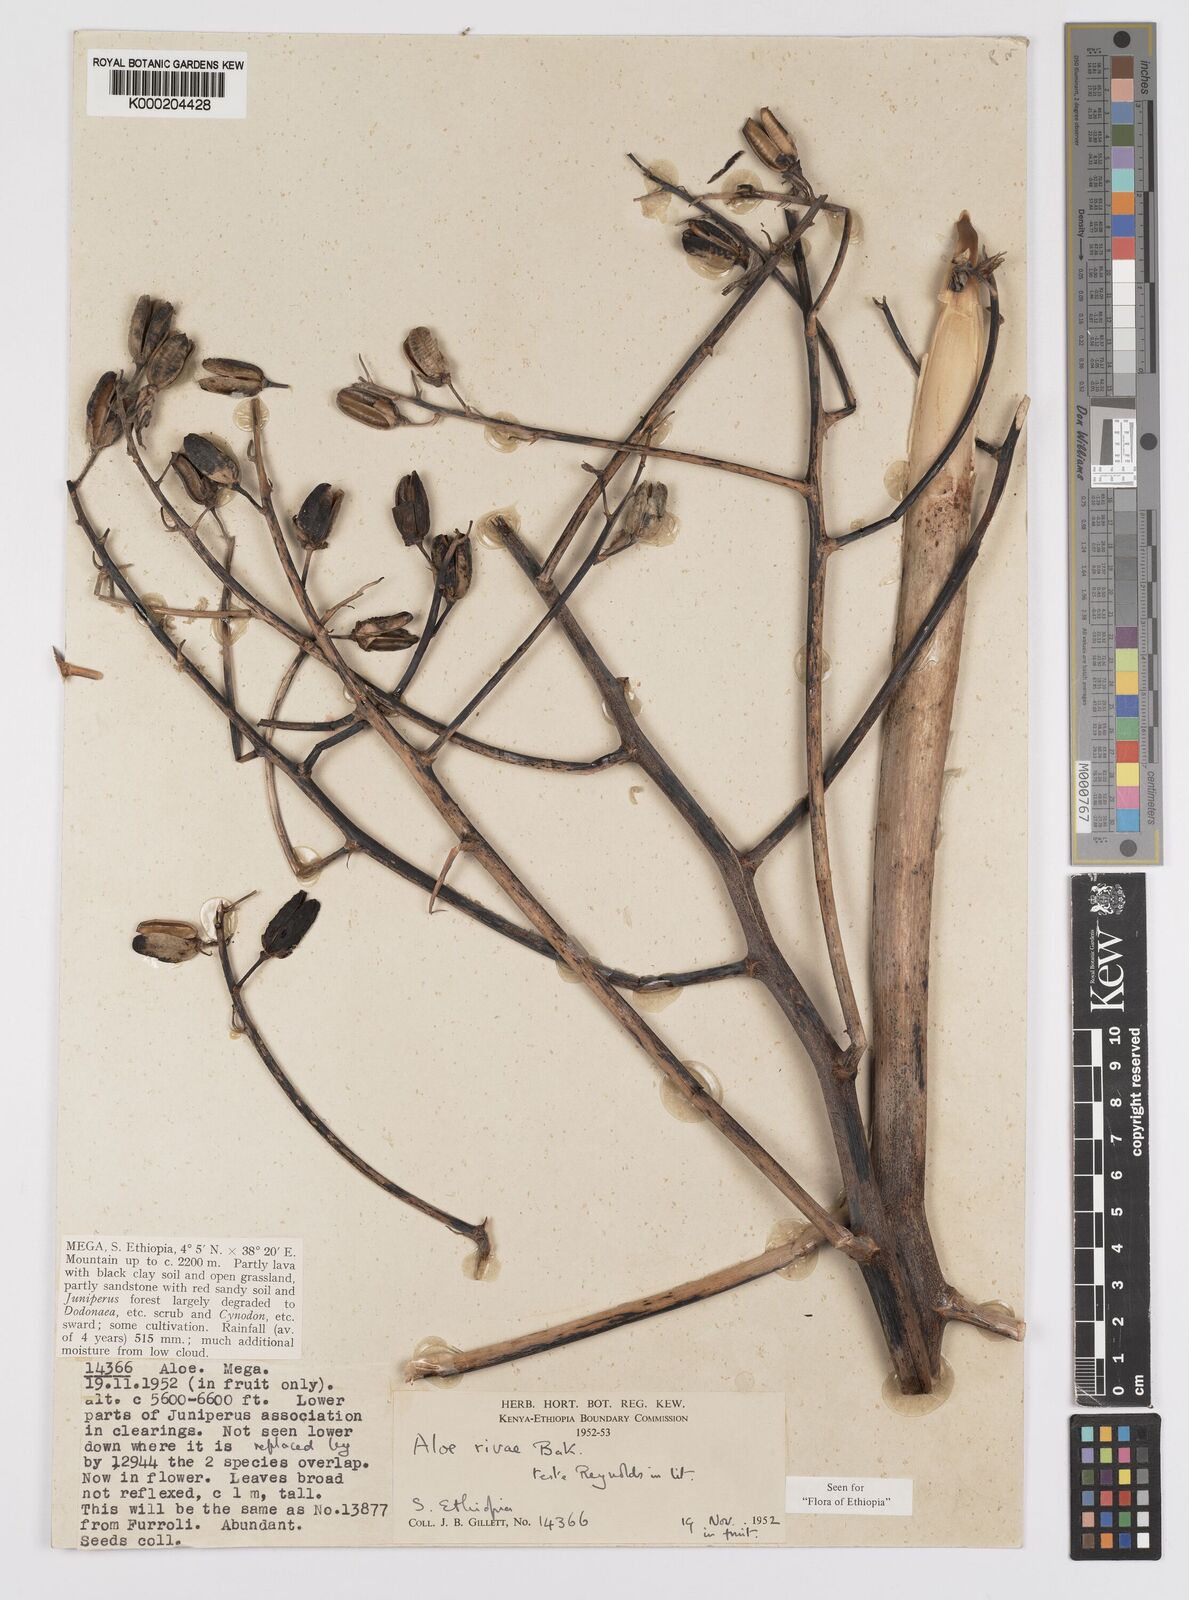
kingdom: Plantae
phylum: Tracheophyta
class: Liliopsida
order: Asparagales
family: Asphodelaceae
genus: Aloe
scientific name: Aloe rivae
